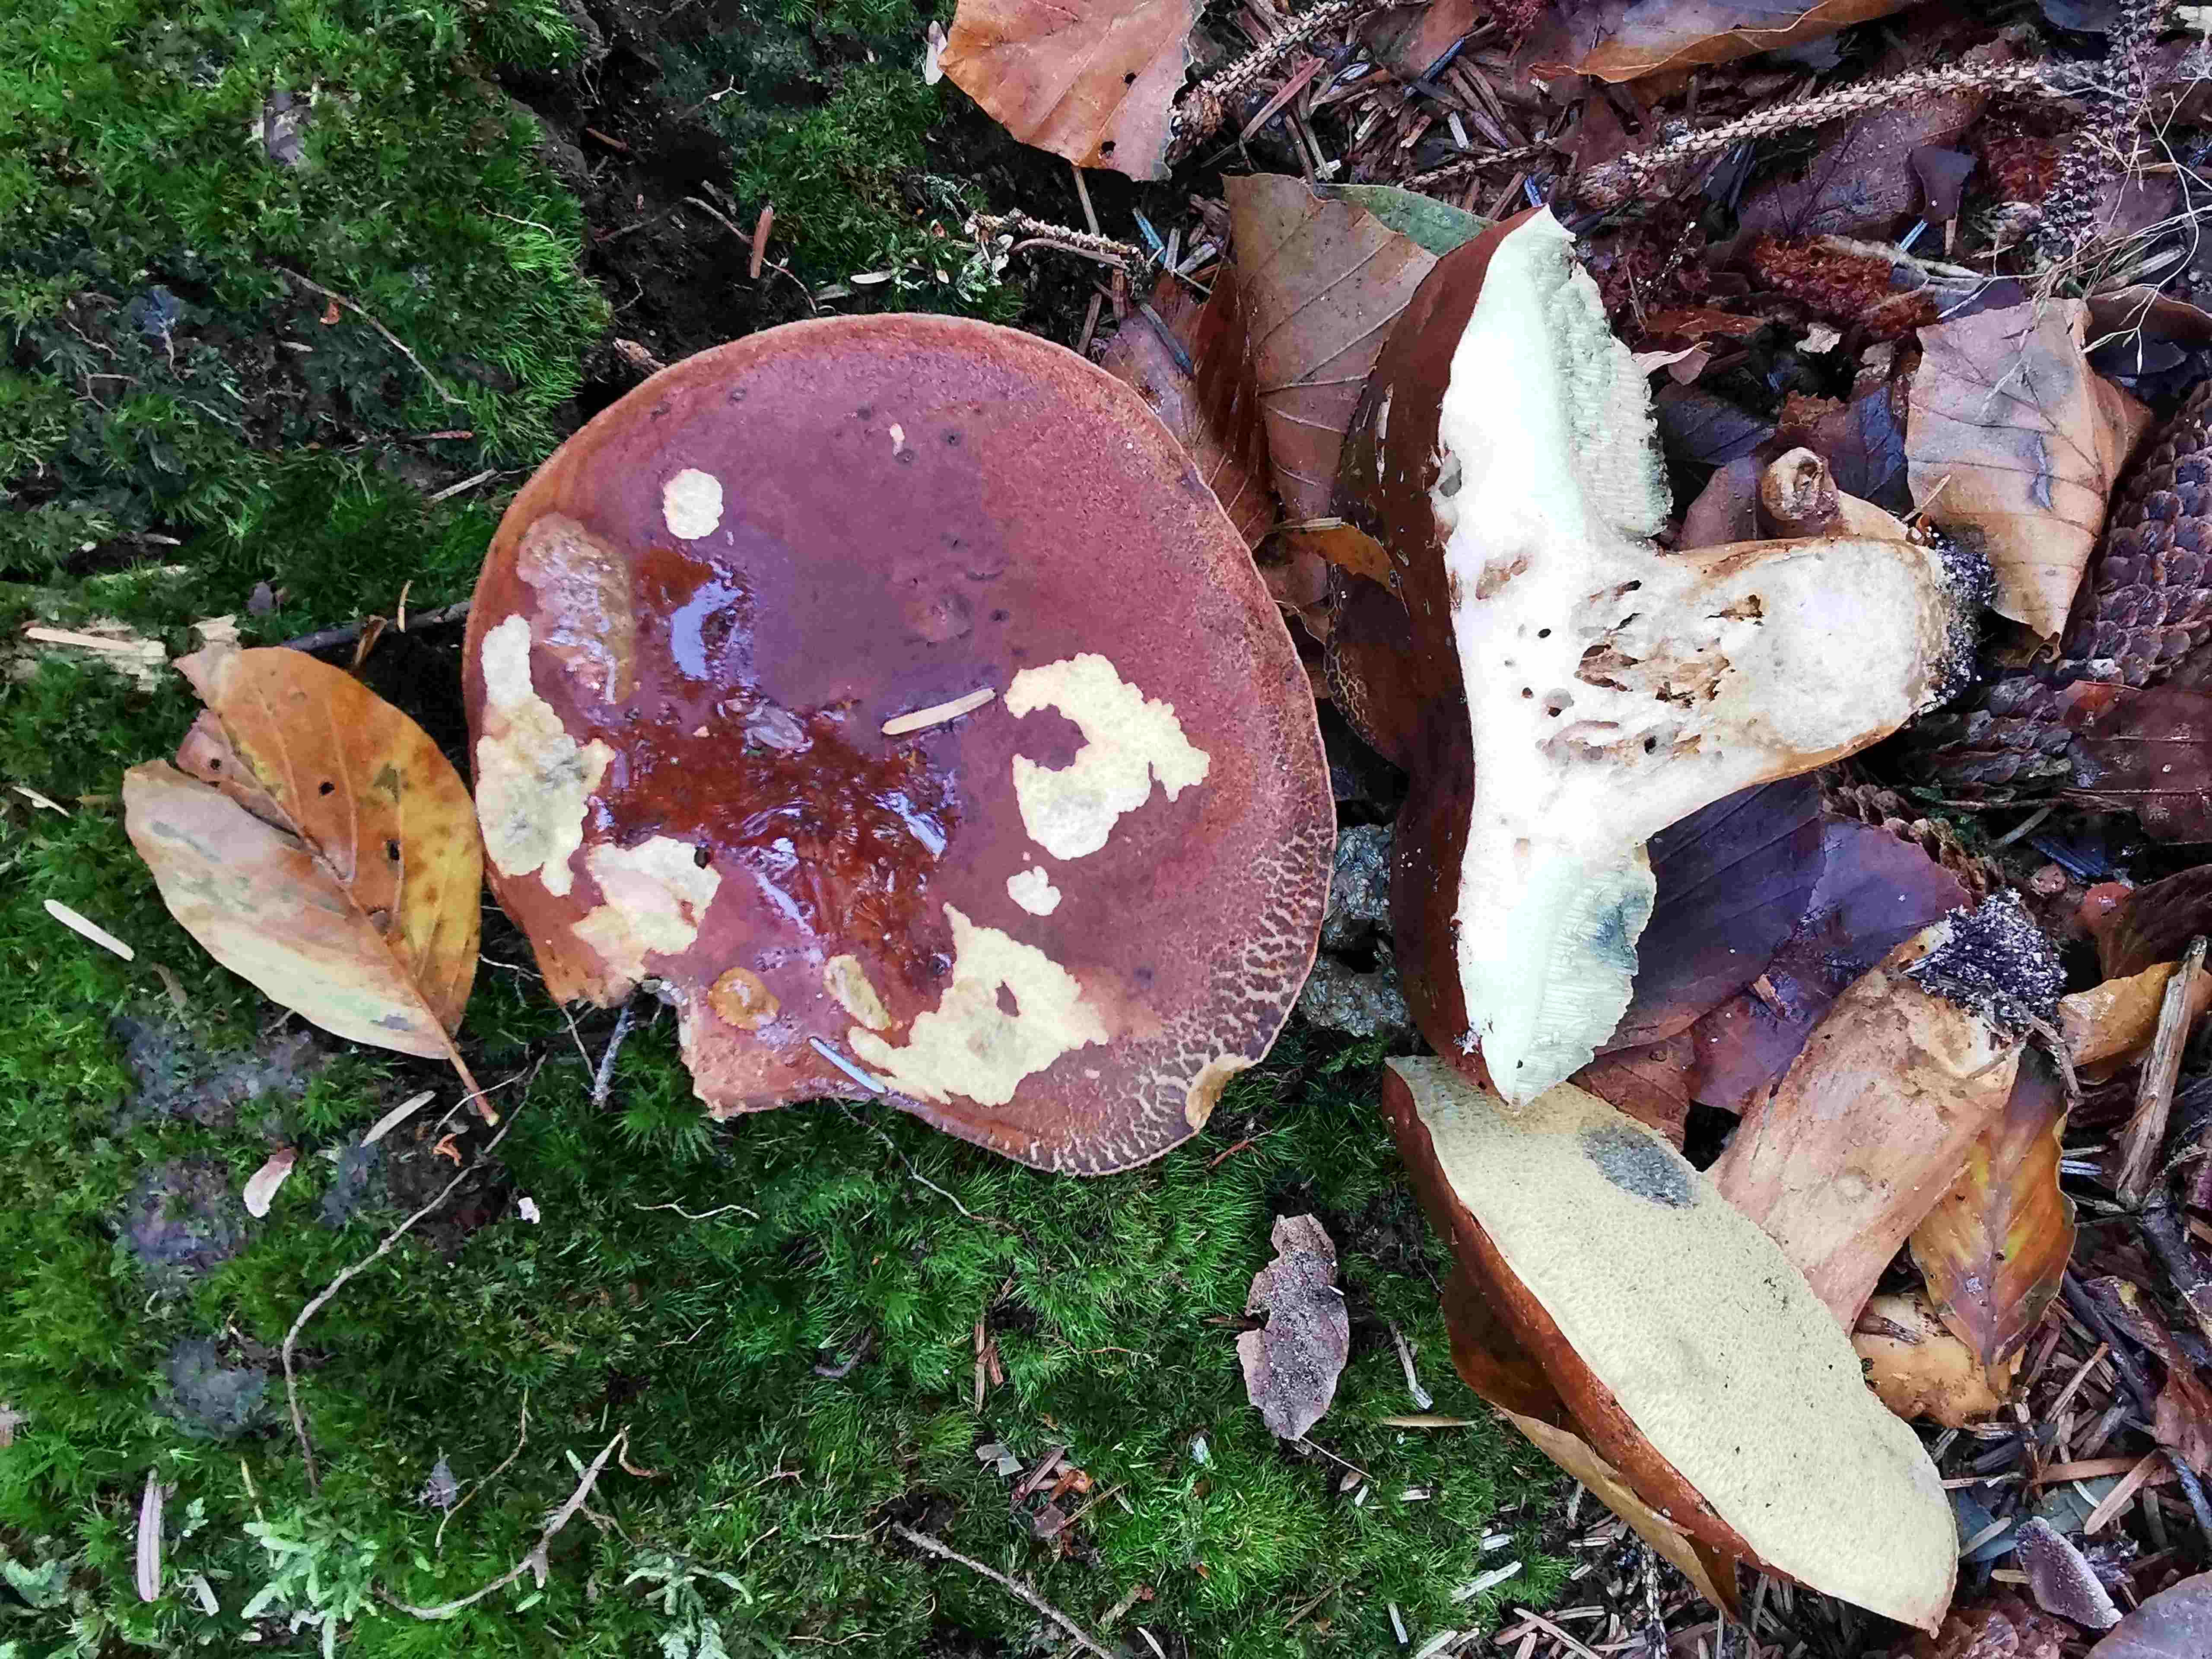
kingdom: Fungi
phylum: Basidiomycota
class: Agaricomycetes
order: Boletales
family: Boletaceae
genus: Imleria
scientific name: Imleria badia
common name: brunstokket rørhat
